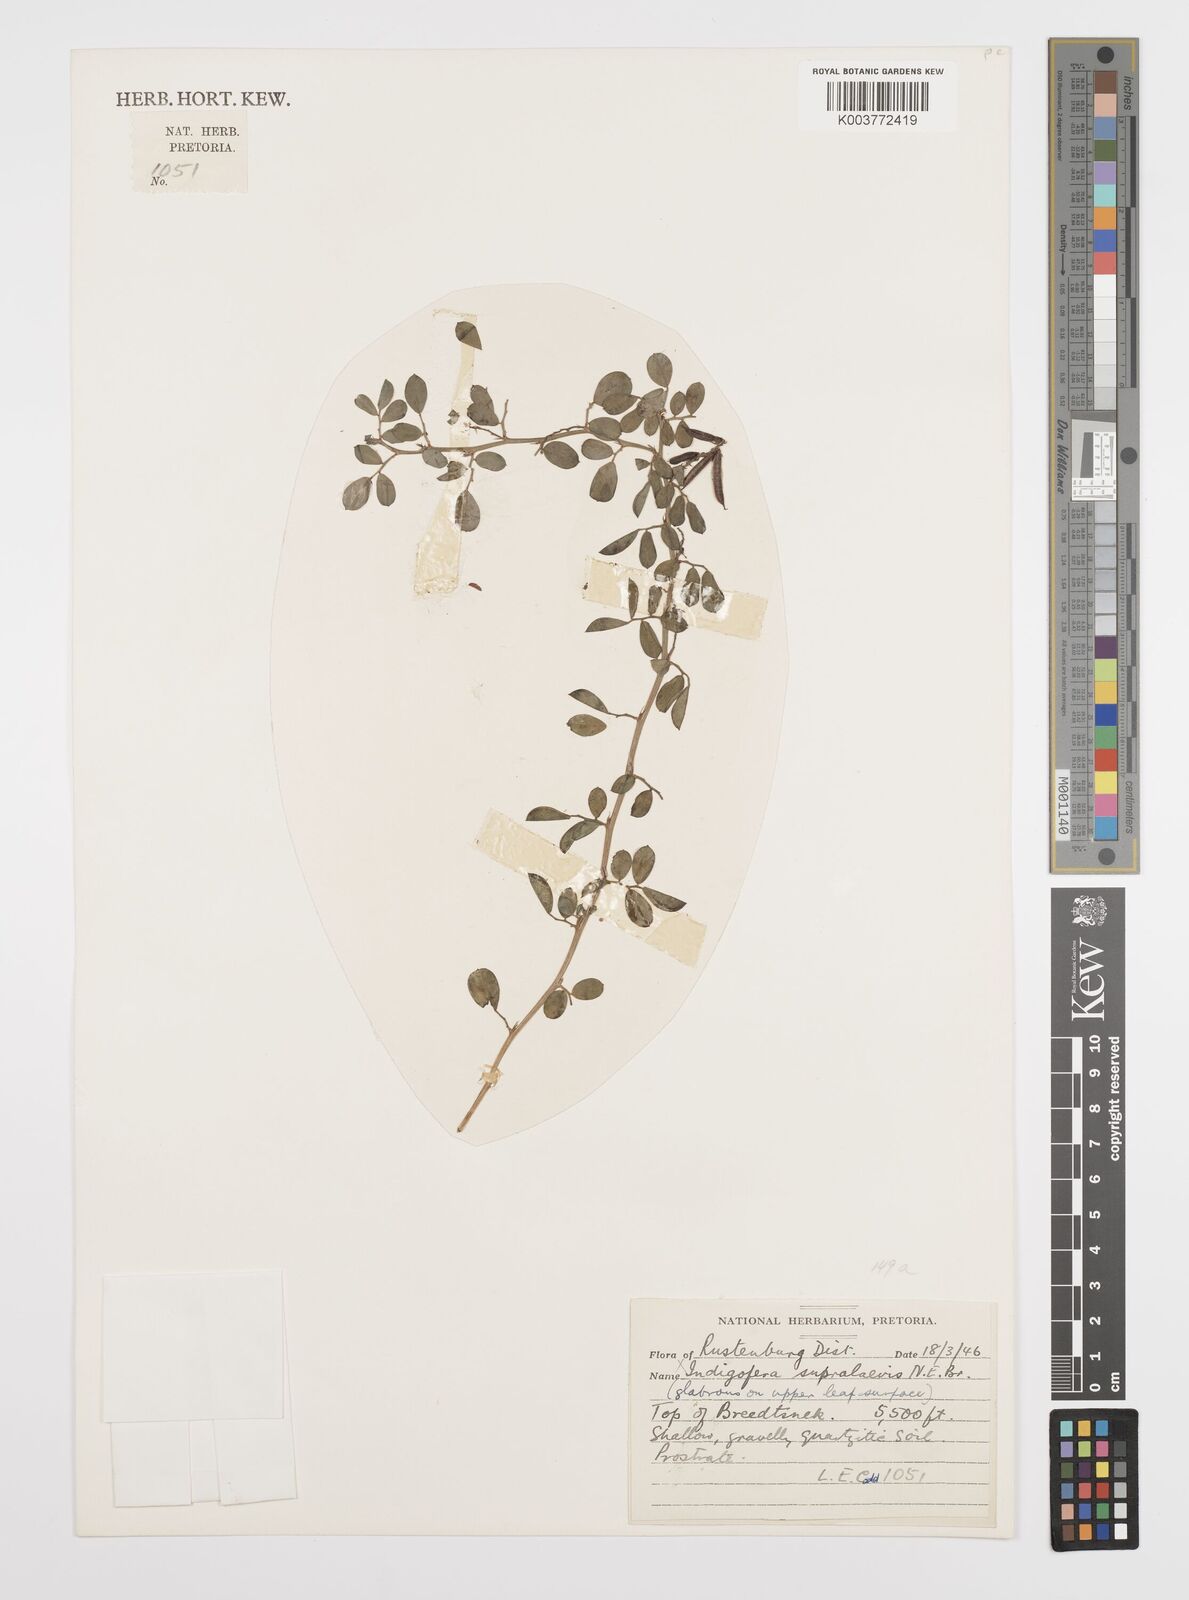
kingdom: Plantae
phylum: Tracheophyta
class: Magnoliopsida
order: Fabales
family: Fabaceae
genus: Indigofera
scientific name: Indigofera oxalidea
